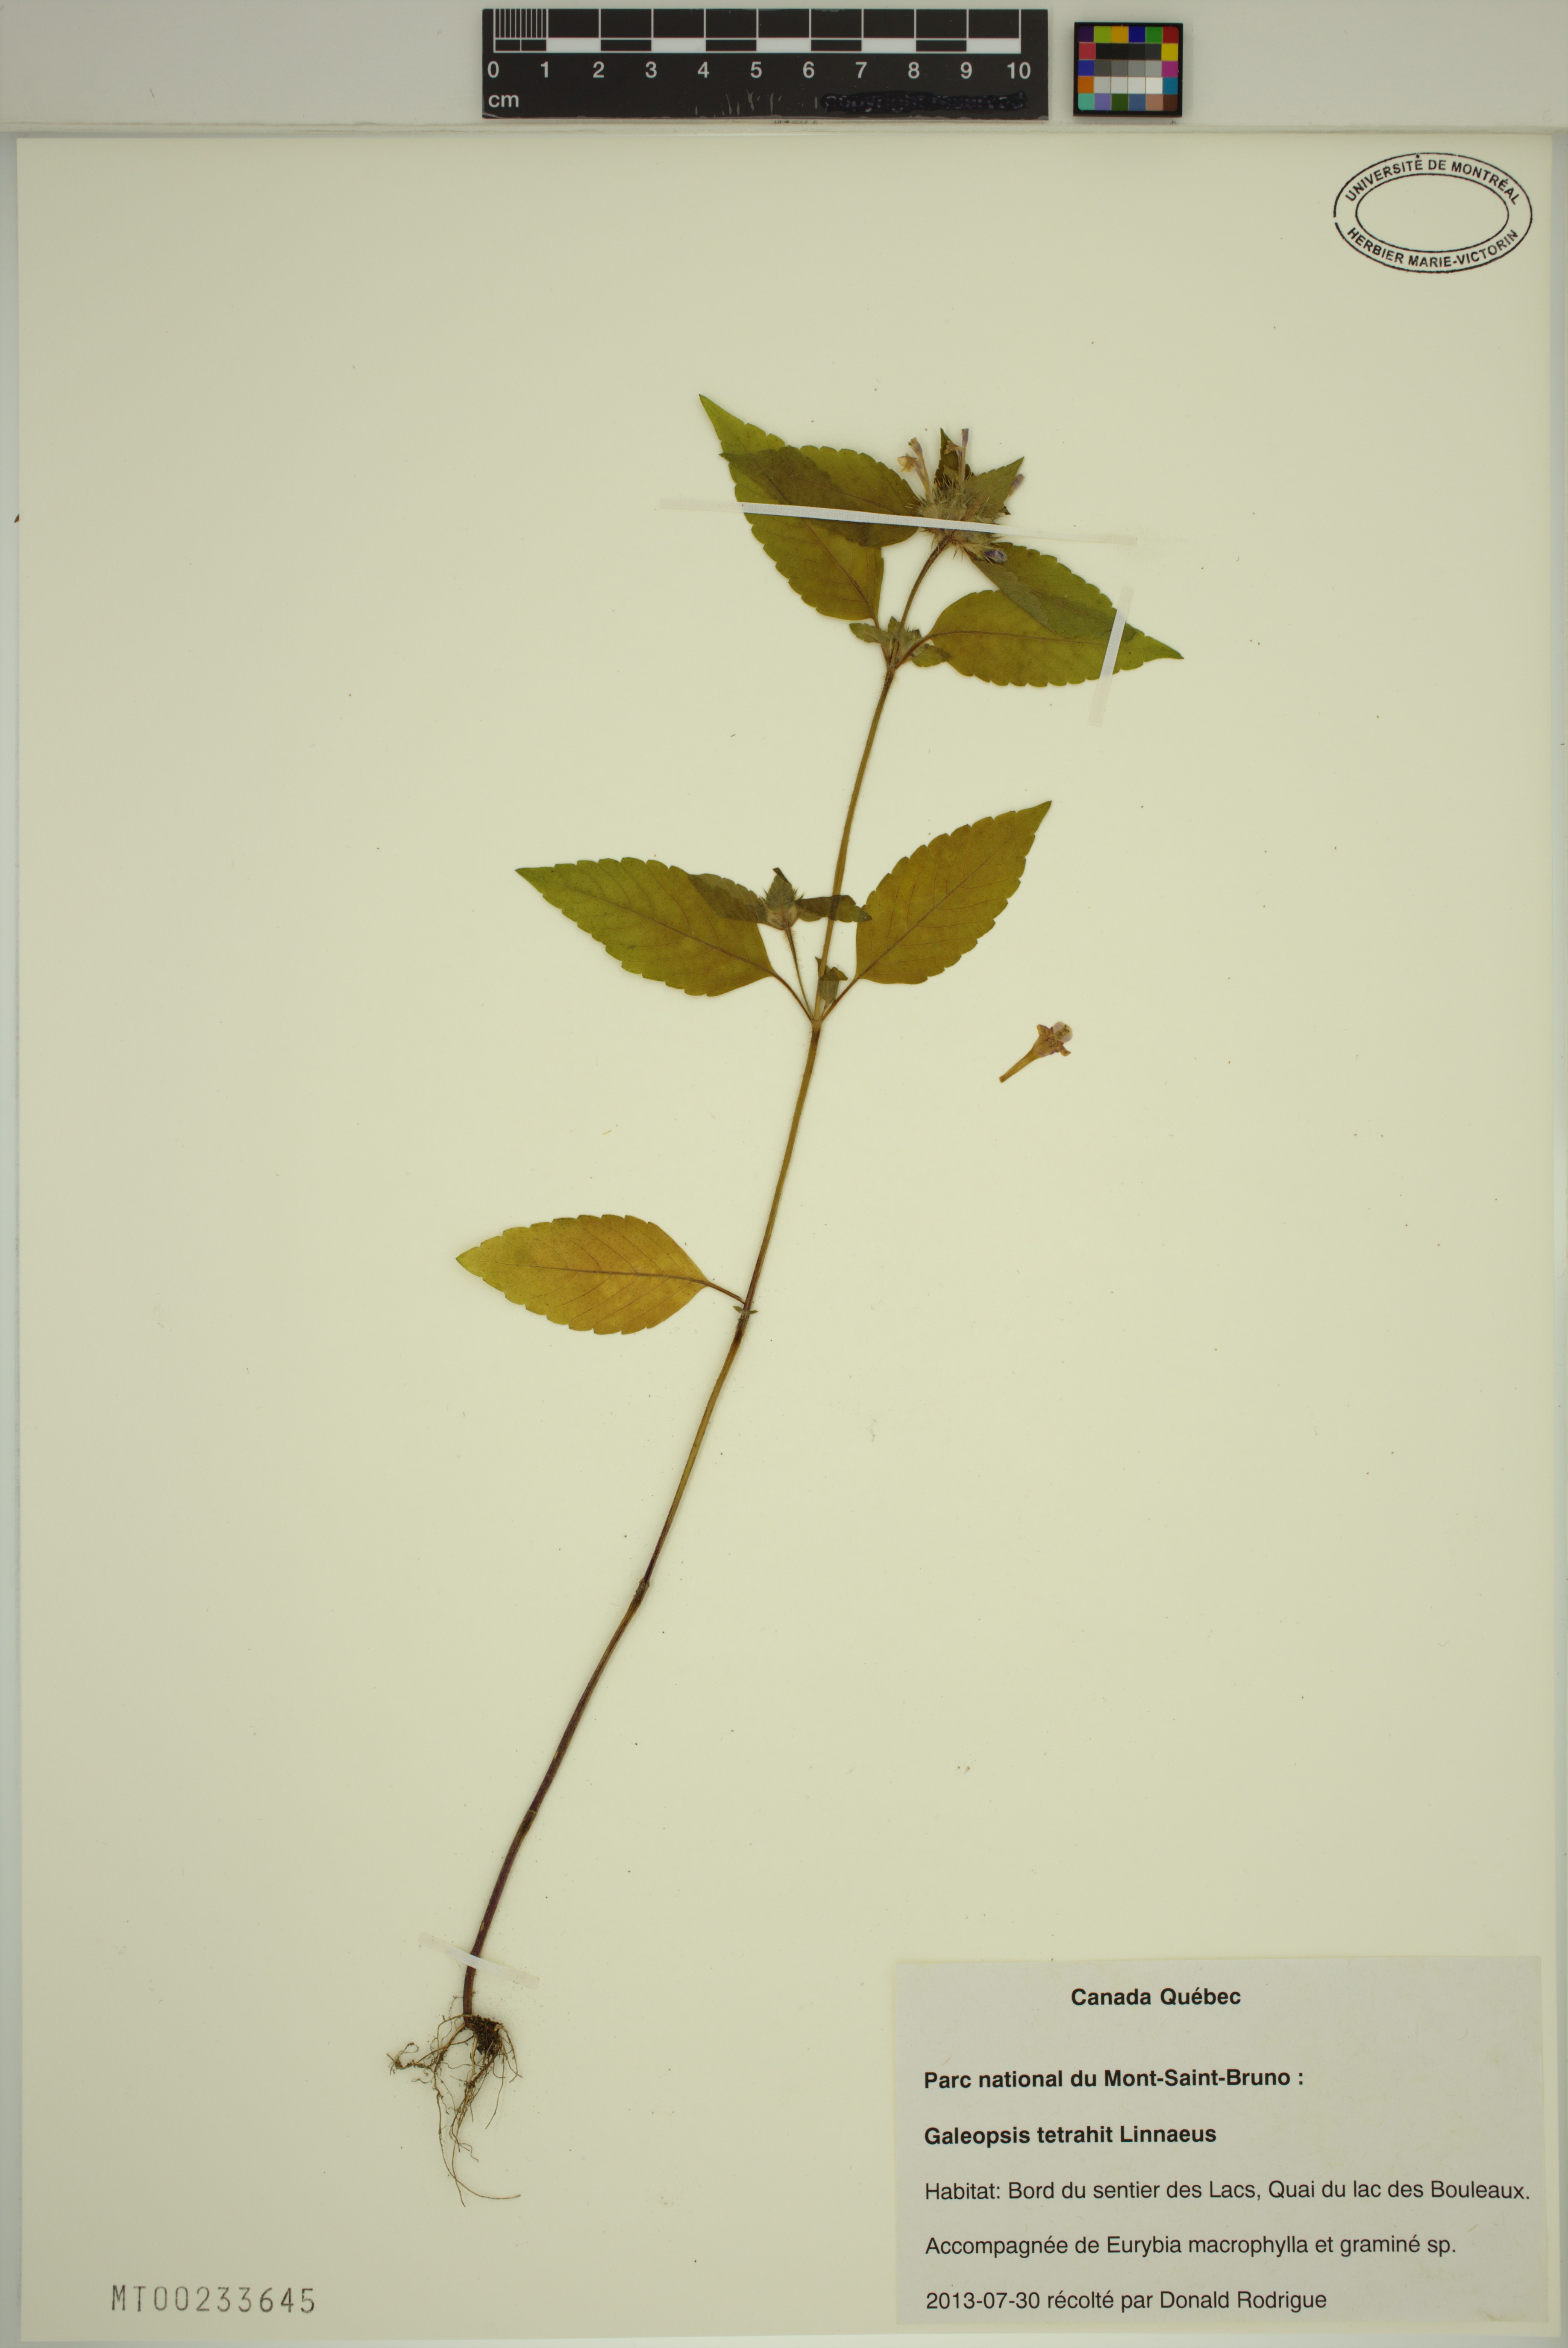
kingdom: Plantae
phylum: Tracheophyta
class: Magnoliopsida
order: Lamiales
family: Lamiaceae
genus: Galeopsis
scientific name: Galeopsis tetrahit
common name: Common hemp-nettle
